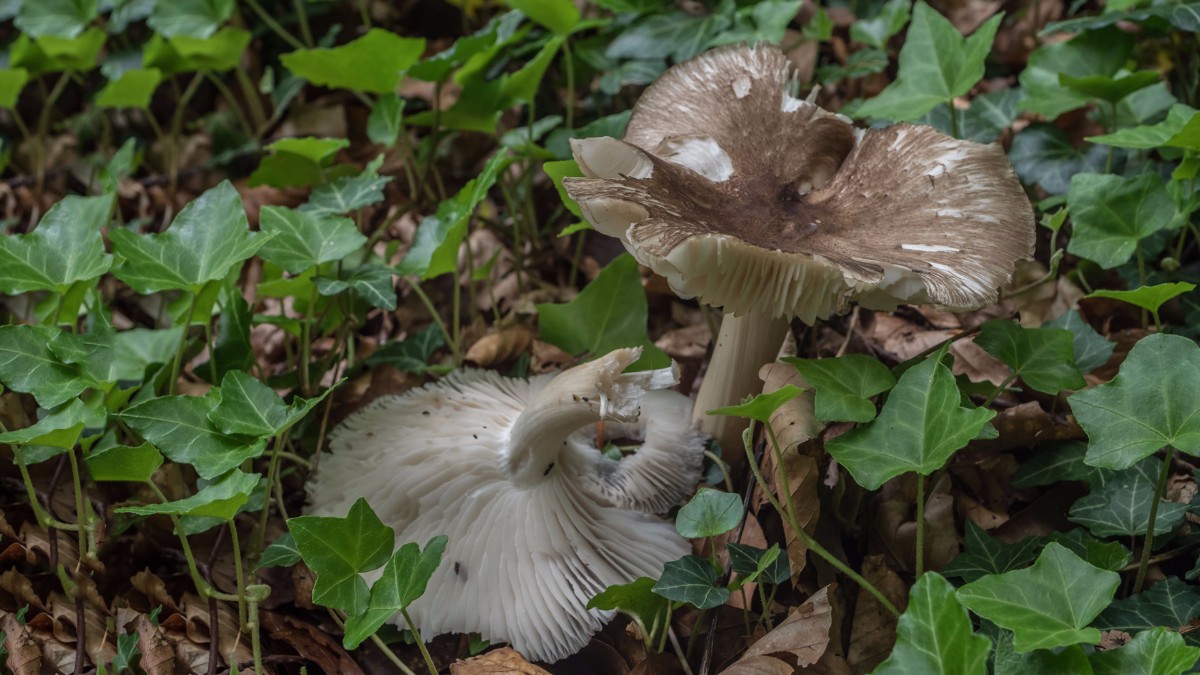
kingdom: Fungi
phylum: Basidiomycota
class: Agaricomycetes
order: Agaricales
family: Tricholomataceae
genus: Megacollybia
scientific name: Megacollybia platyphylla
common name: bredbladet væbnerhat
